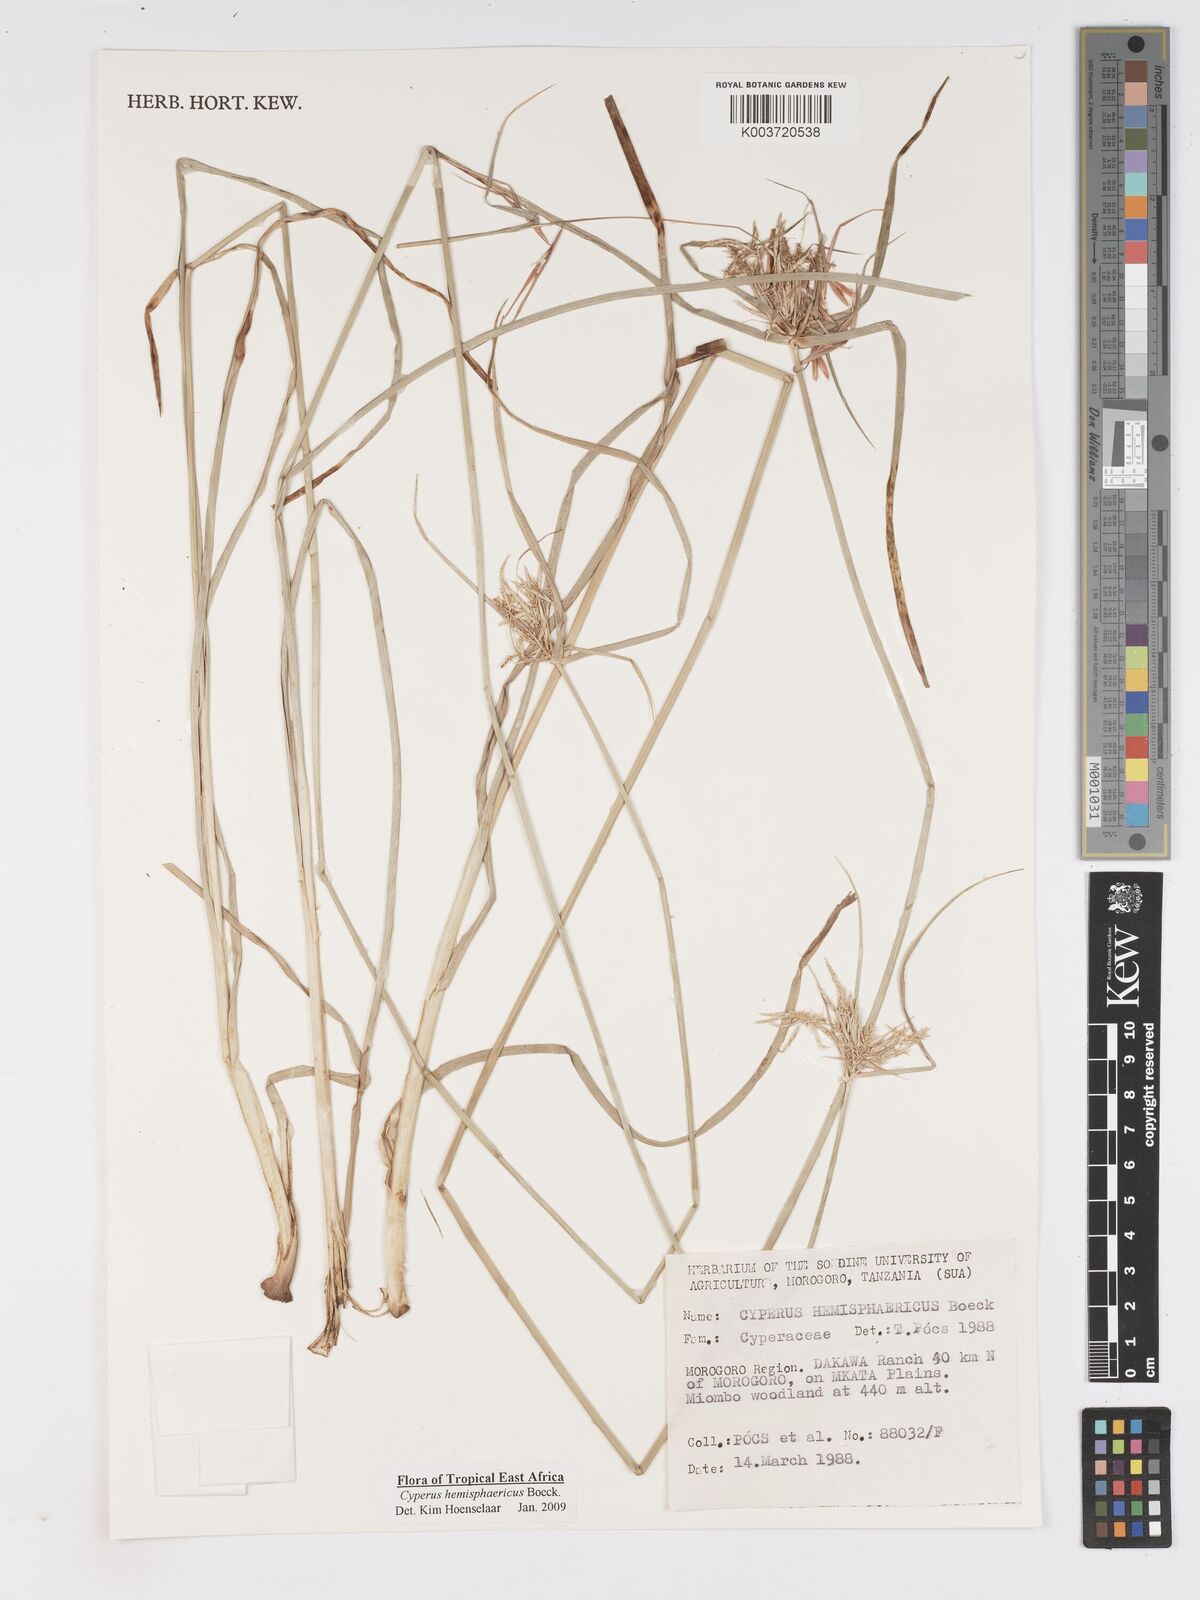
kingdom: Plantae
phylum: Tracheophyta
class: Liliopsida
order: Poales
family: Cyperaceae
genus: Cyperus
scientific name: Cyperus hemisphaericus
